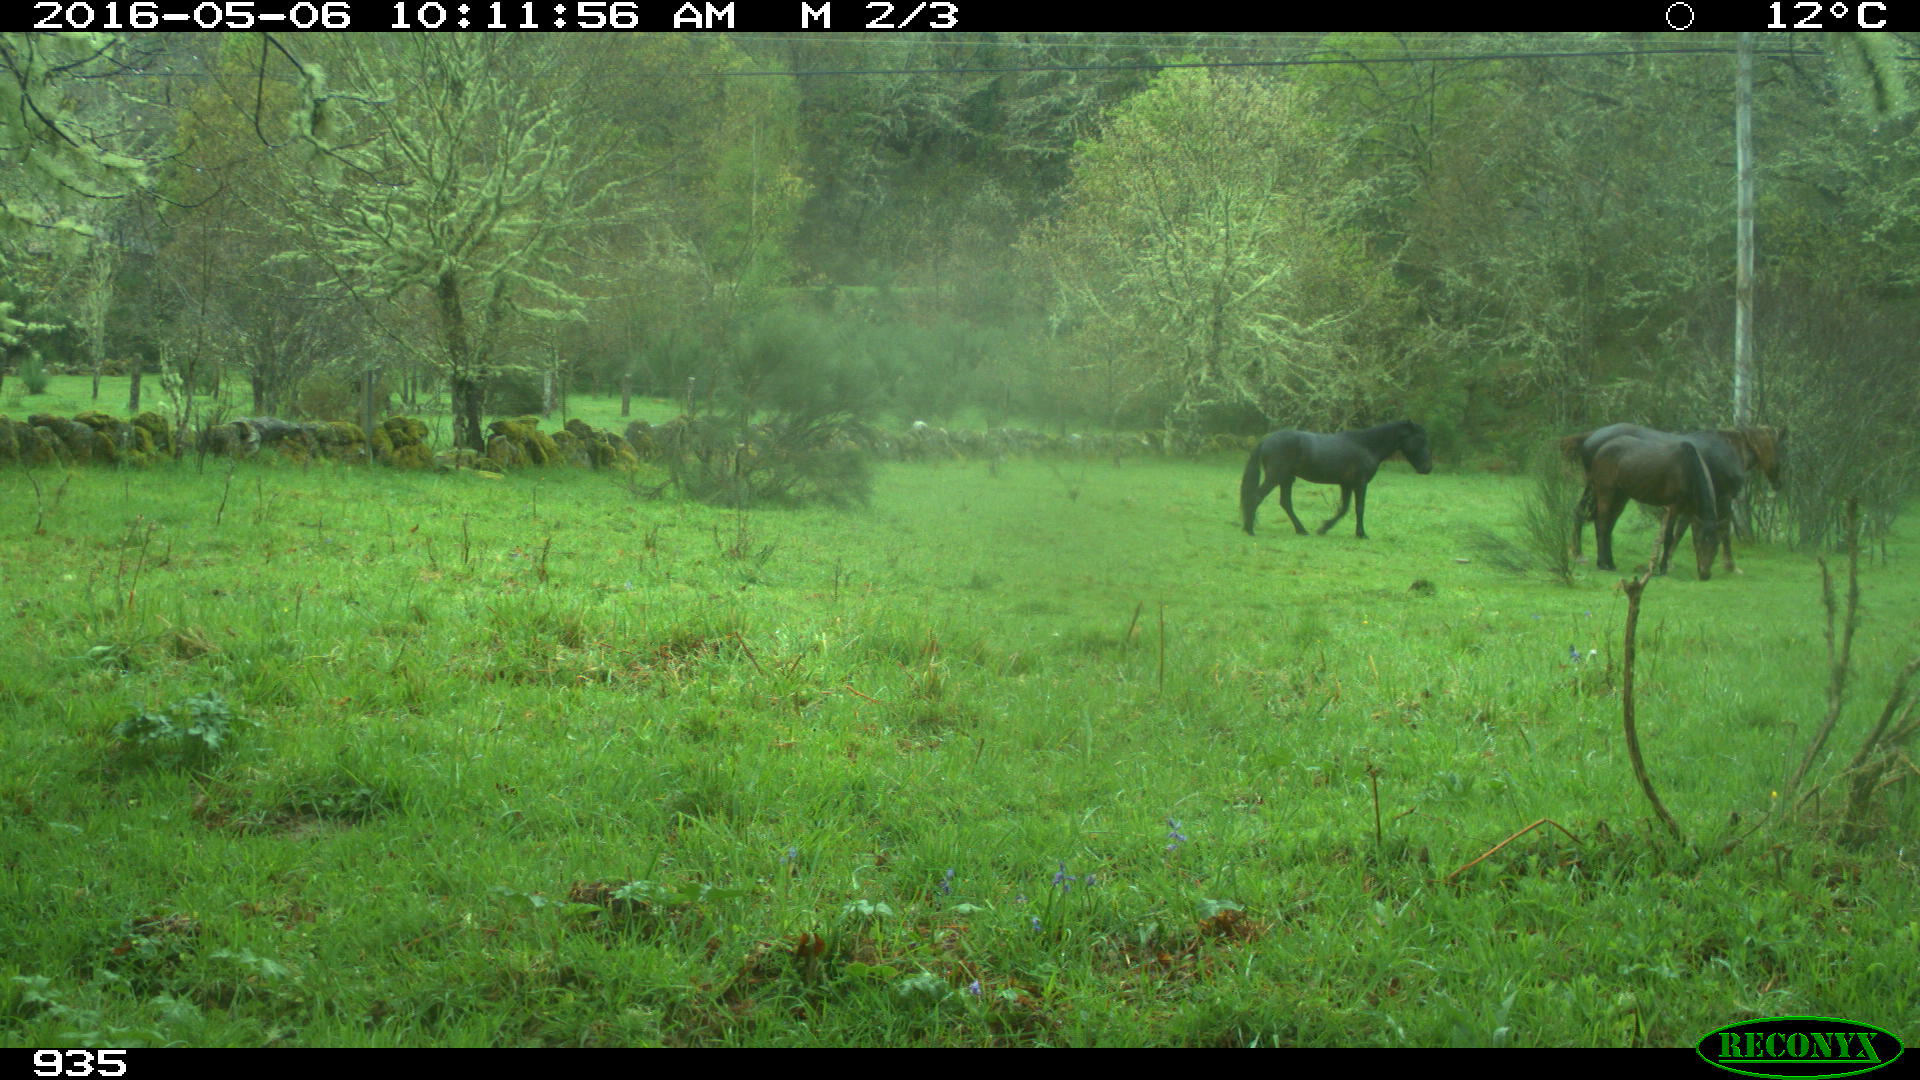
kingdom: Animalia
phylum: Chordata
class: Mammalia
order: Perissodactyla
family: Equidae
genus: Equus
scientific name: Equus caballus
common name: Horse
